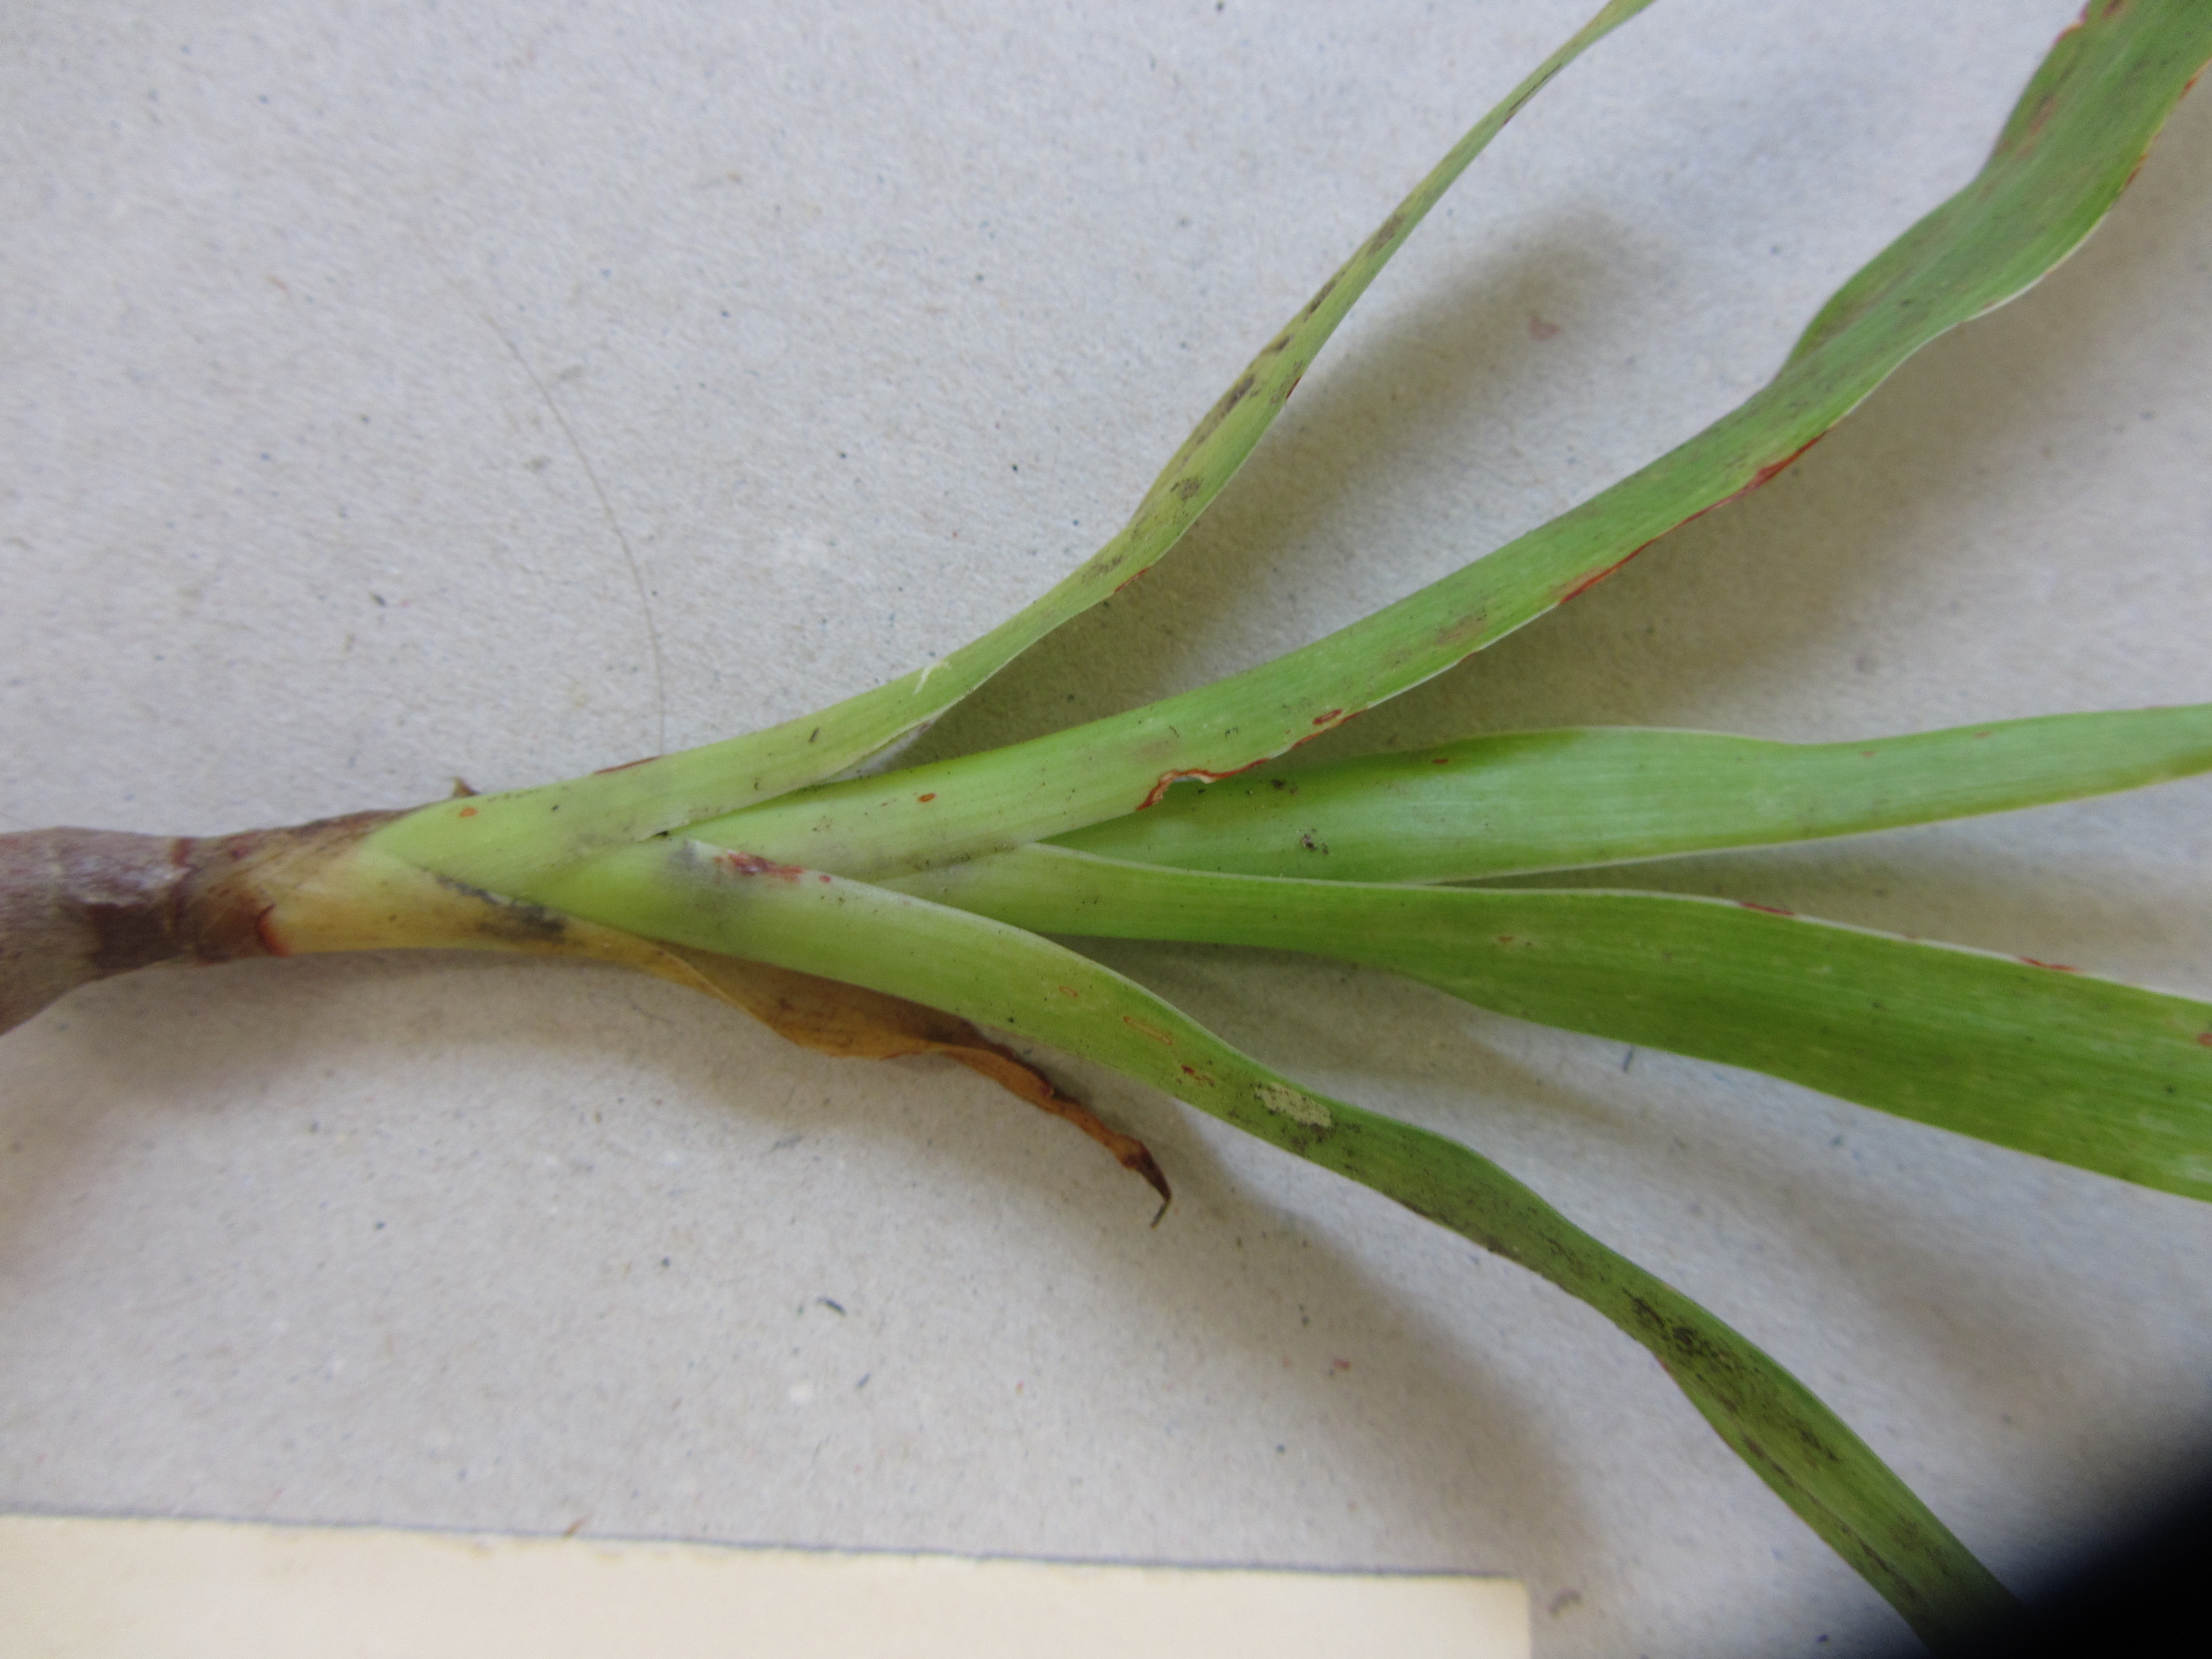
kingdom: Plantae
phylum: Tracheophyta
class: Liliopsida
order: Asparagales
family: Asparagaceae
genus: Dracaena
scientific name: Dracaena draco
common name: Canary island dragon tree
